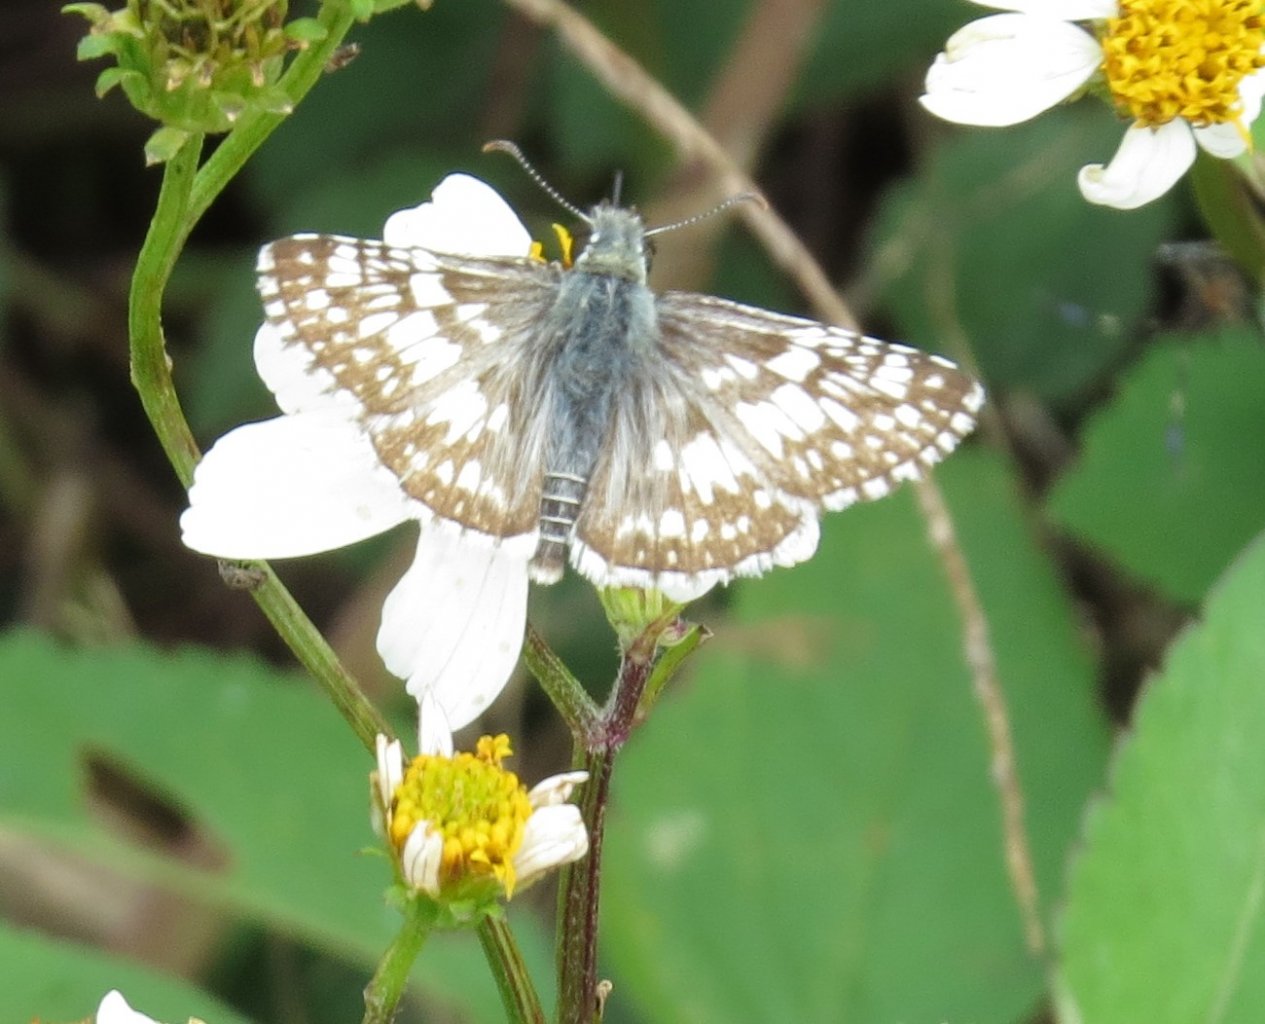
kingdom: Animalia
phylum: Arthropoda
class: Insecta
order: Lepidoptera
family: Hesperiidae
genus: Pyrgus
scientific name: Pyrgus communis
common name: White Checkered-Skipper
